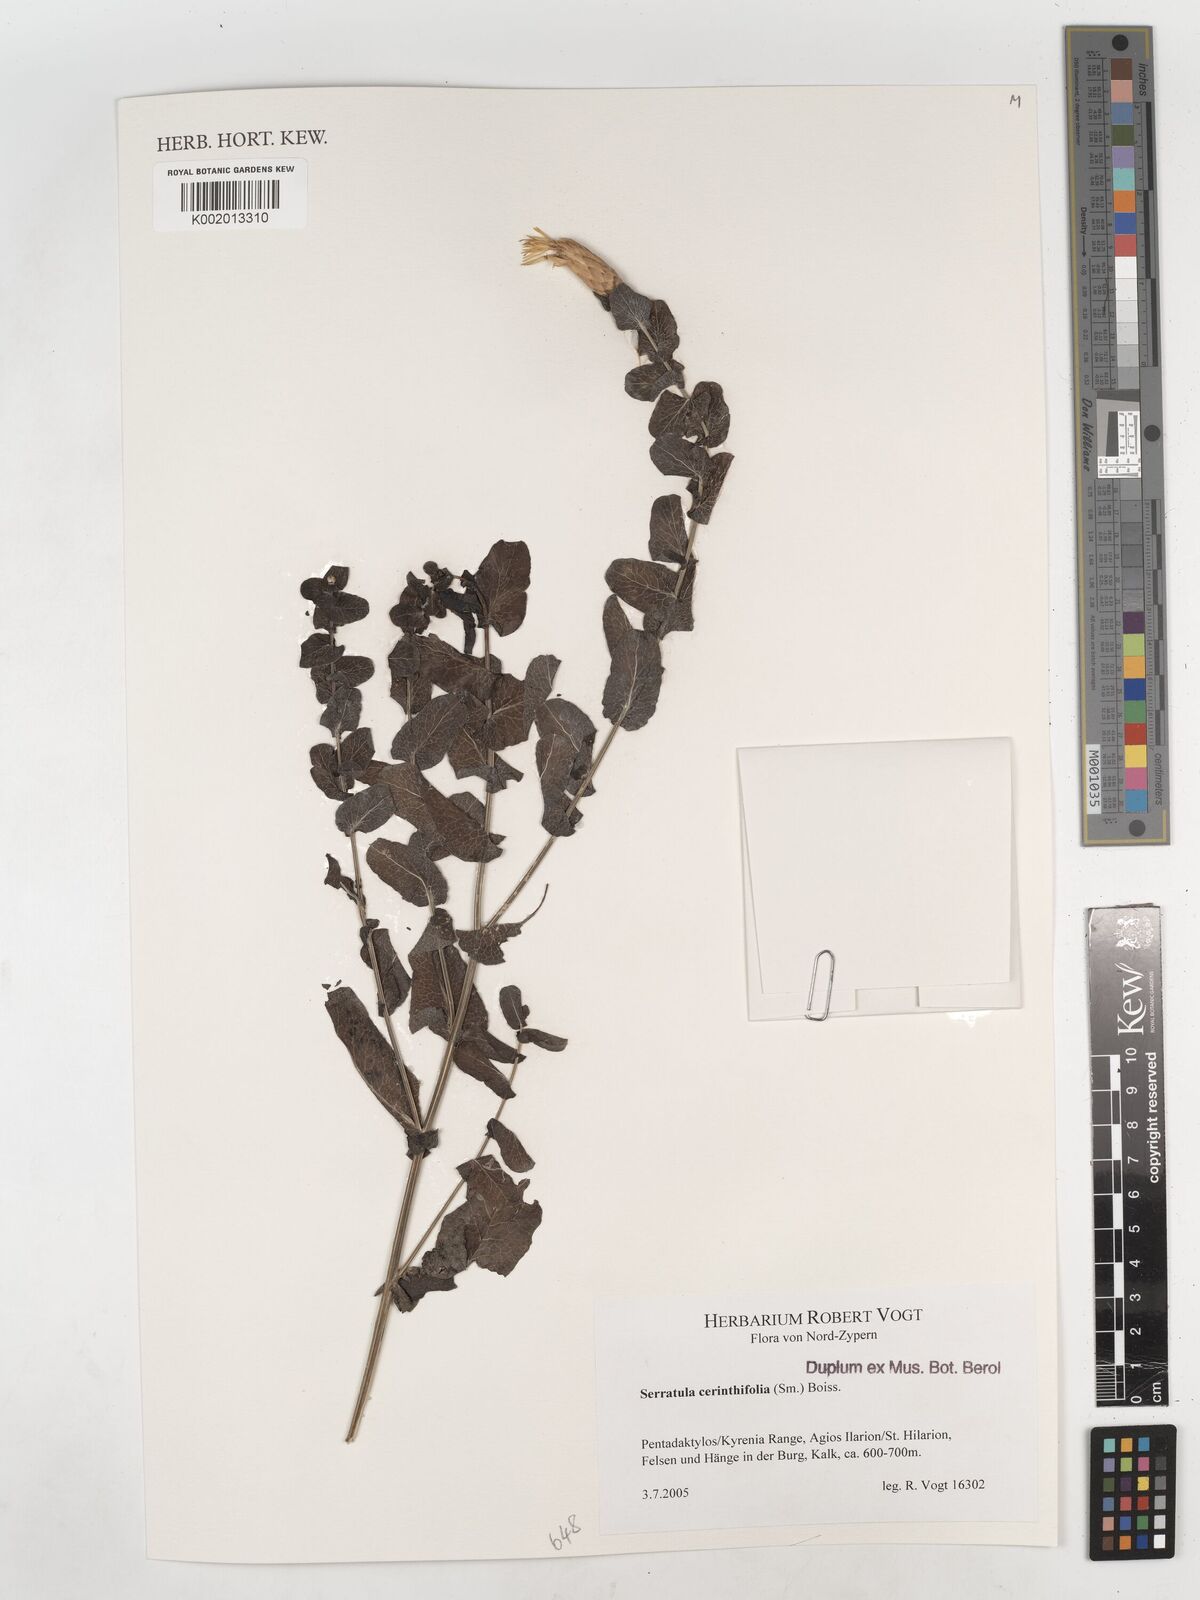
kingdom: Plantae
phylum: Tracheophyta
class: Magnoliopsida
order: Asterales
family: Asteraceae
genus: Klasea
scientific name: Klasea cerinthifolia
